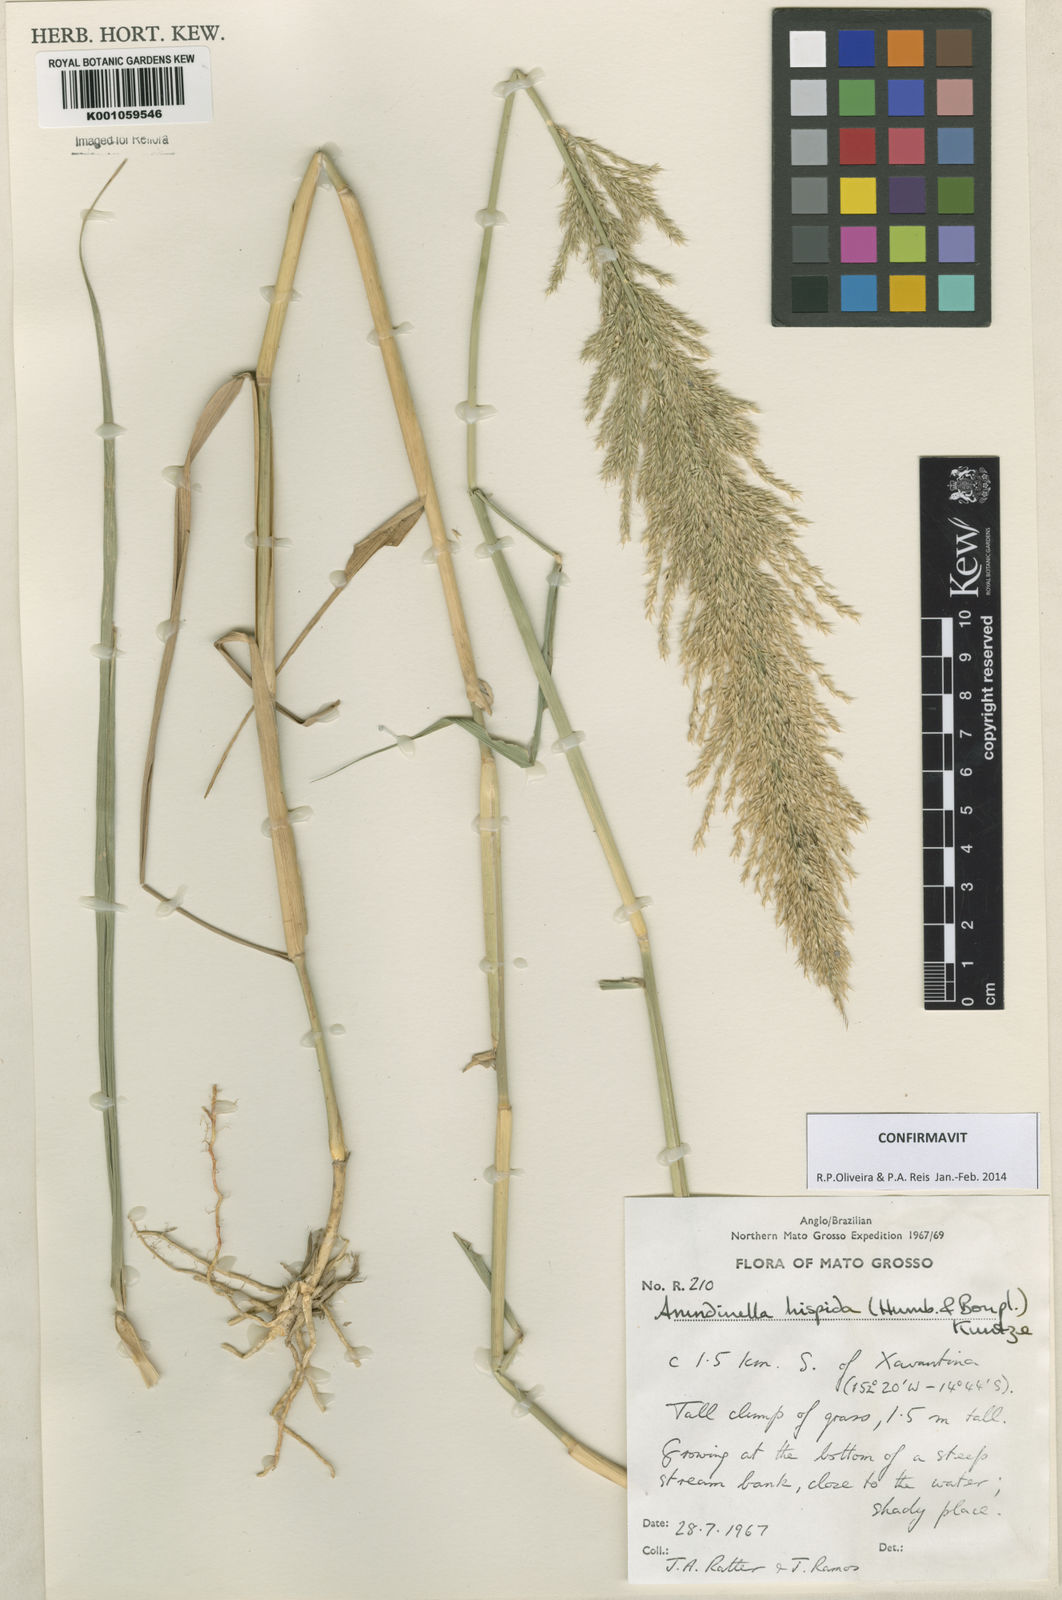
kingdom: Plantae
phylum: Tracheophyta
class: Liliopsida
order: Poales
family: Poaceae
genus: Arundinella
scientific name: Arundinella hispida
